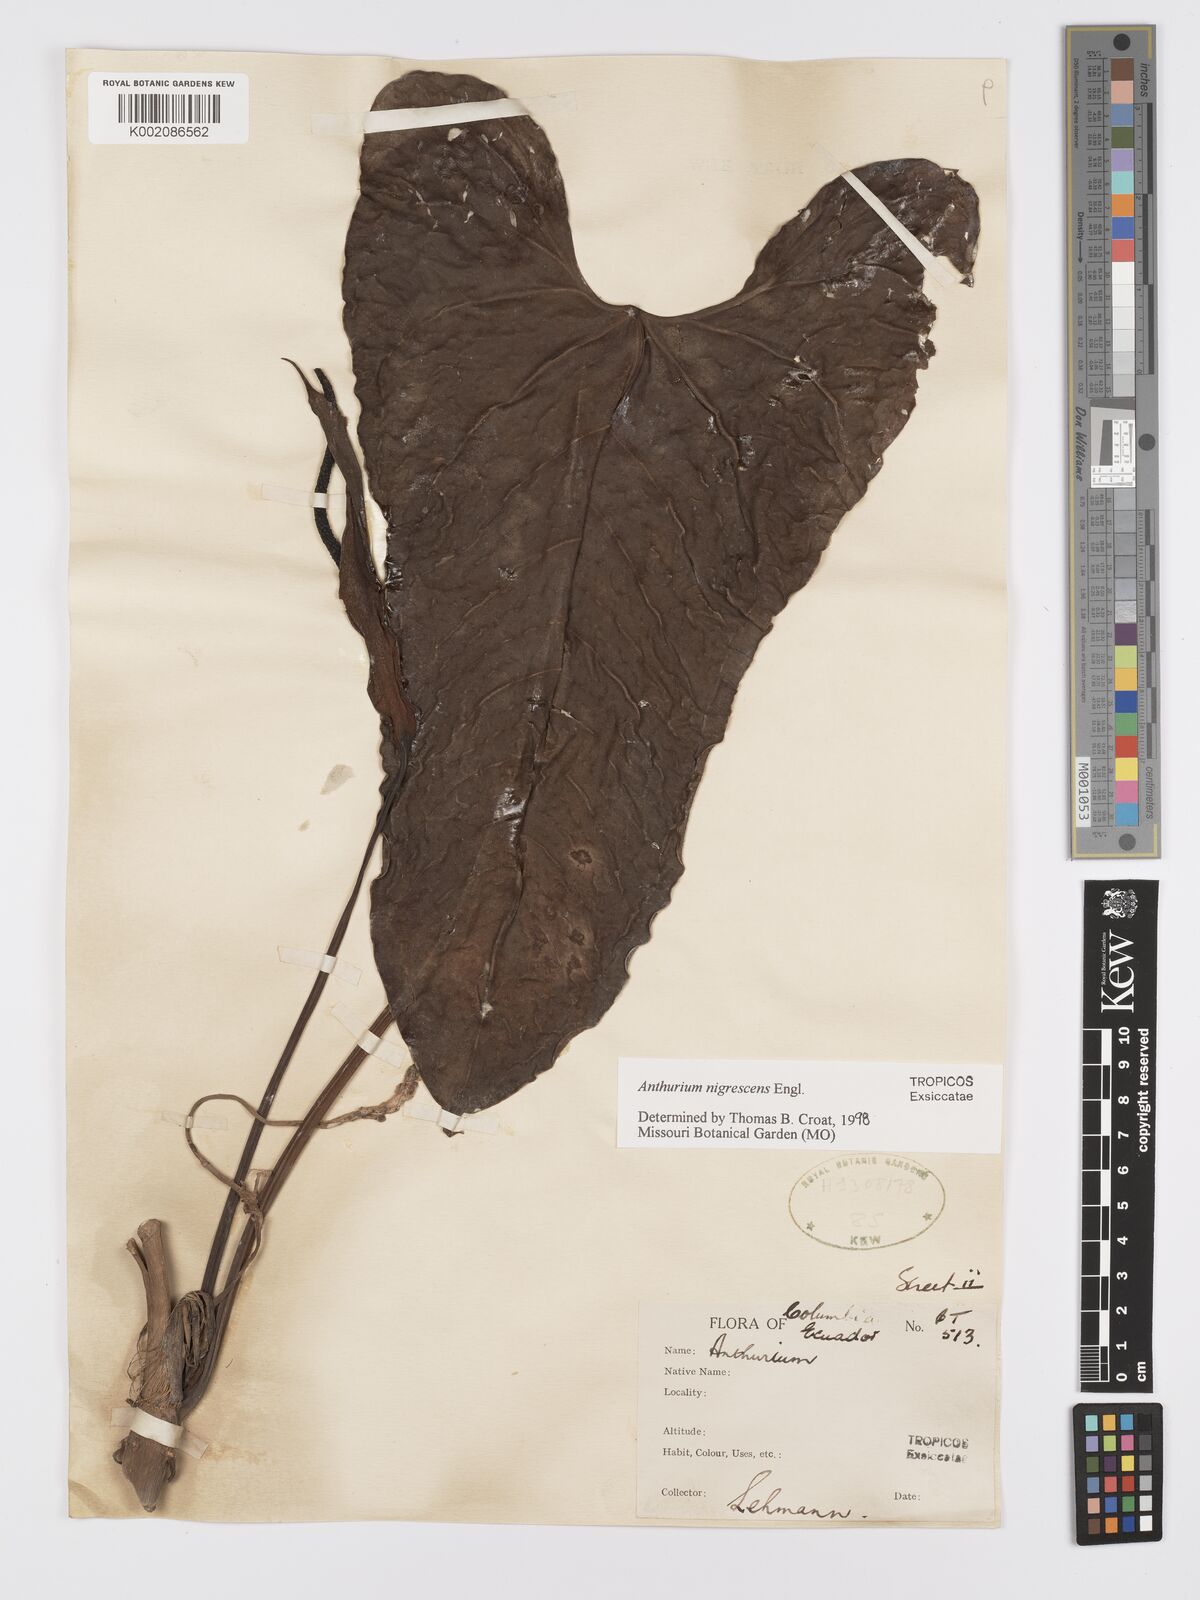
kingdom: Plantae
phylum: Tracheophyta
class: Liliopsida
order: Alismatales
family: Araceae
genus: Anthurium
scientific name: Anthurium nigrescens
